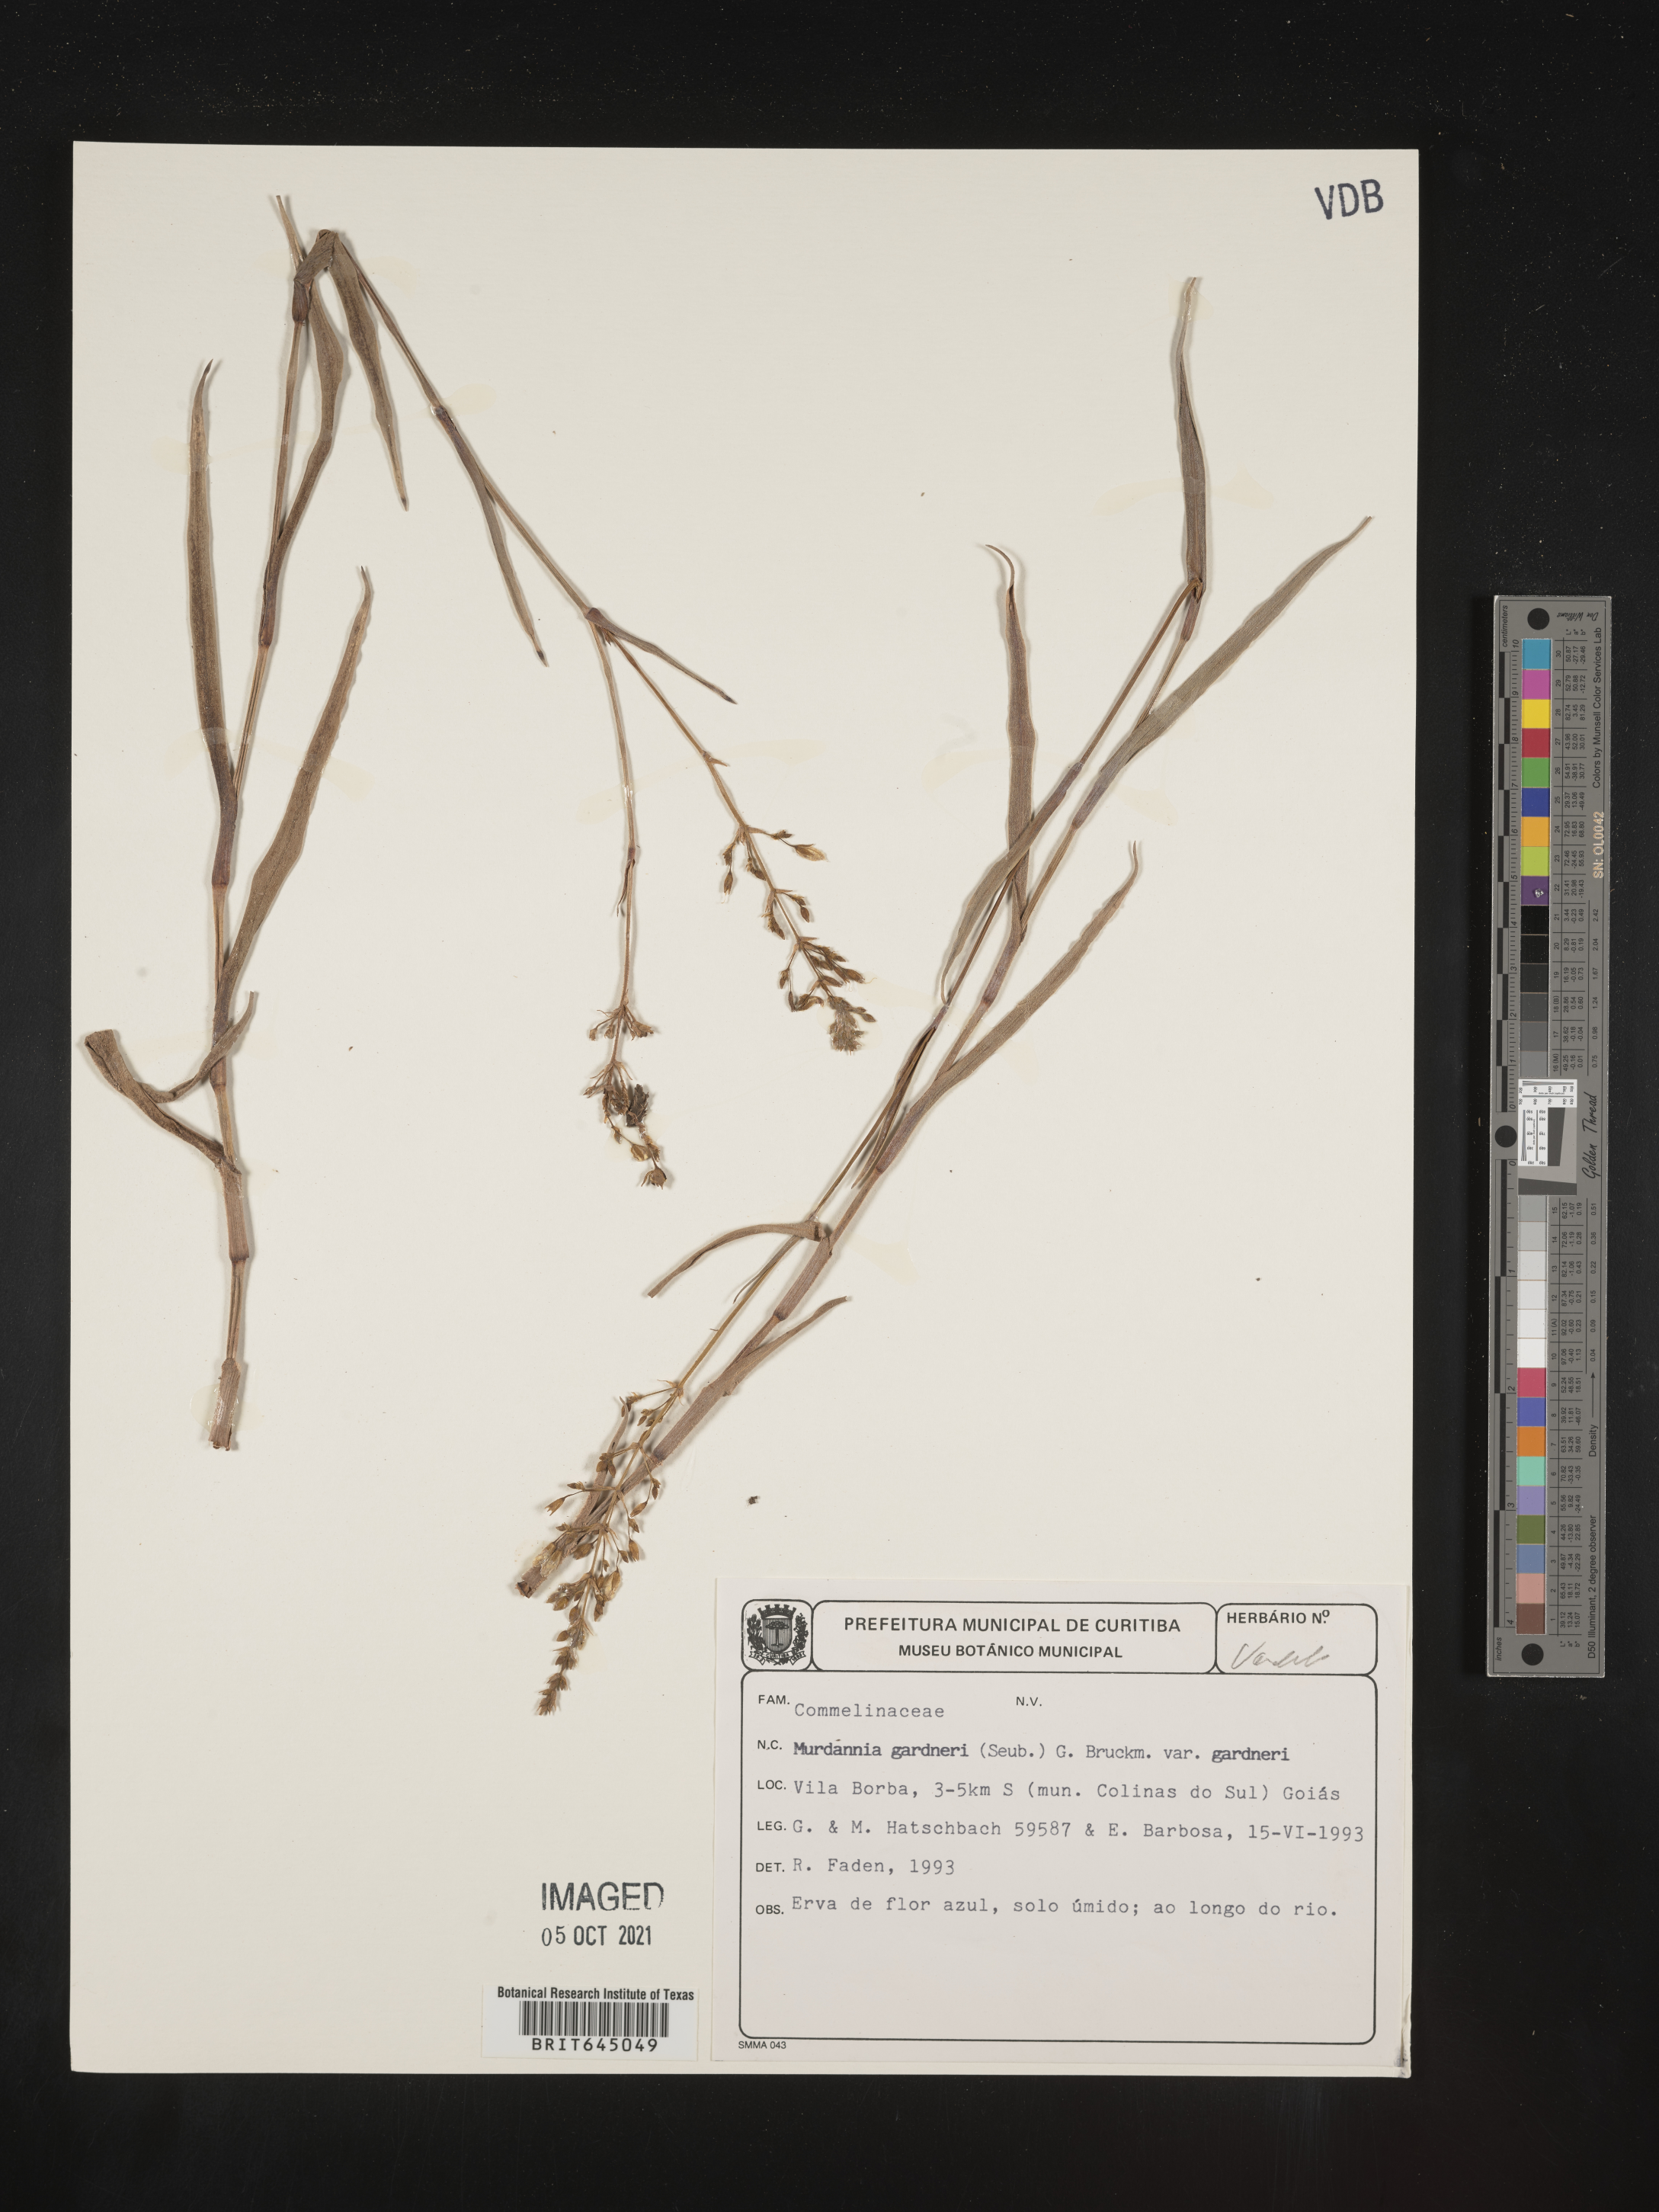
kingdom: Plantae
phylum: Tracheophyta
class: Liliopsida
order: Commelinales
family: Commelinaceae
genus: Murdannia
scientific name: Murdannia gardneri
